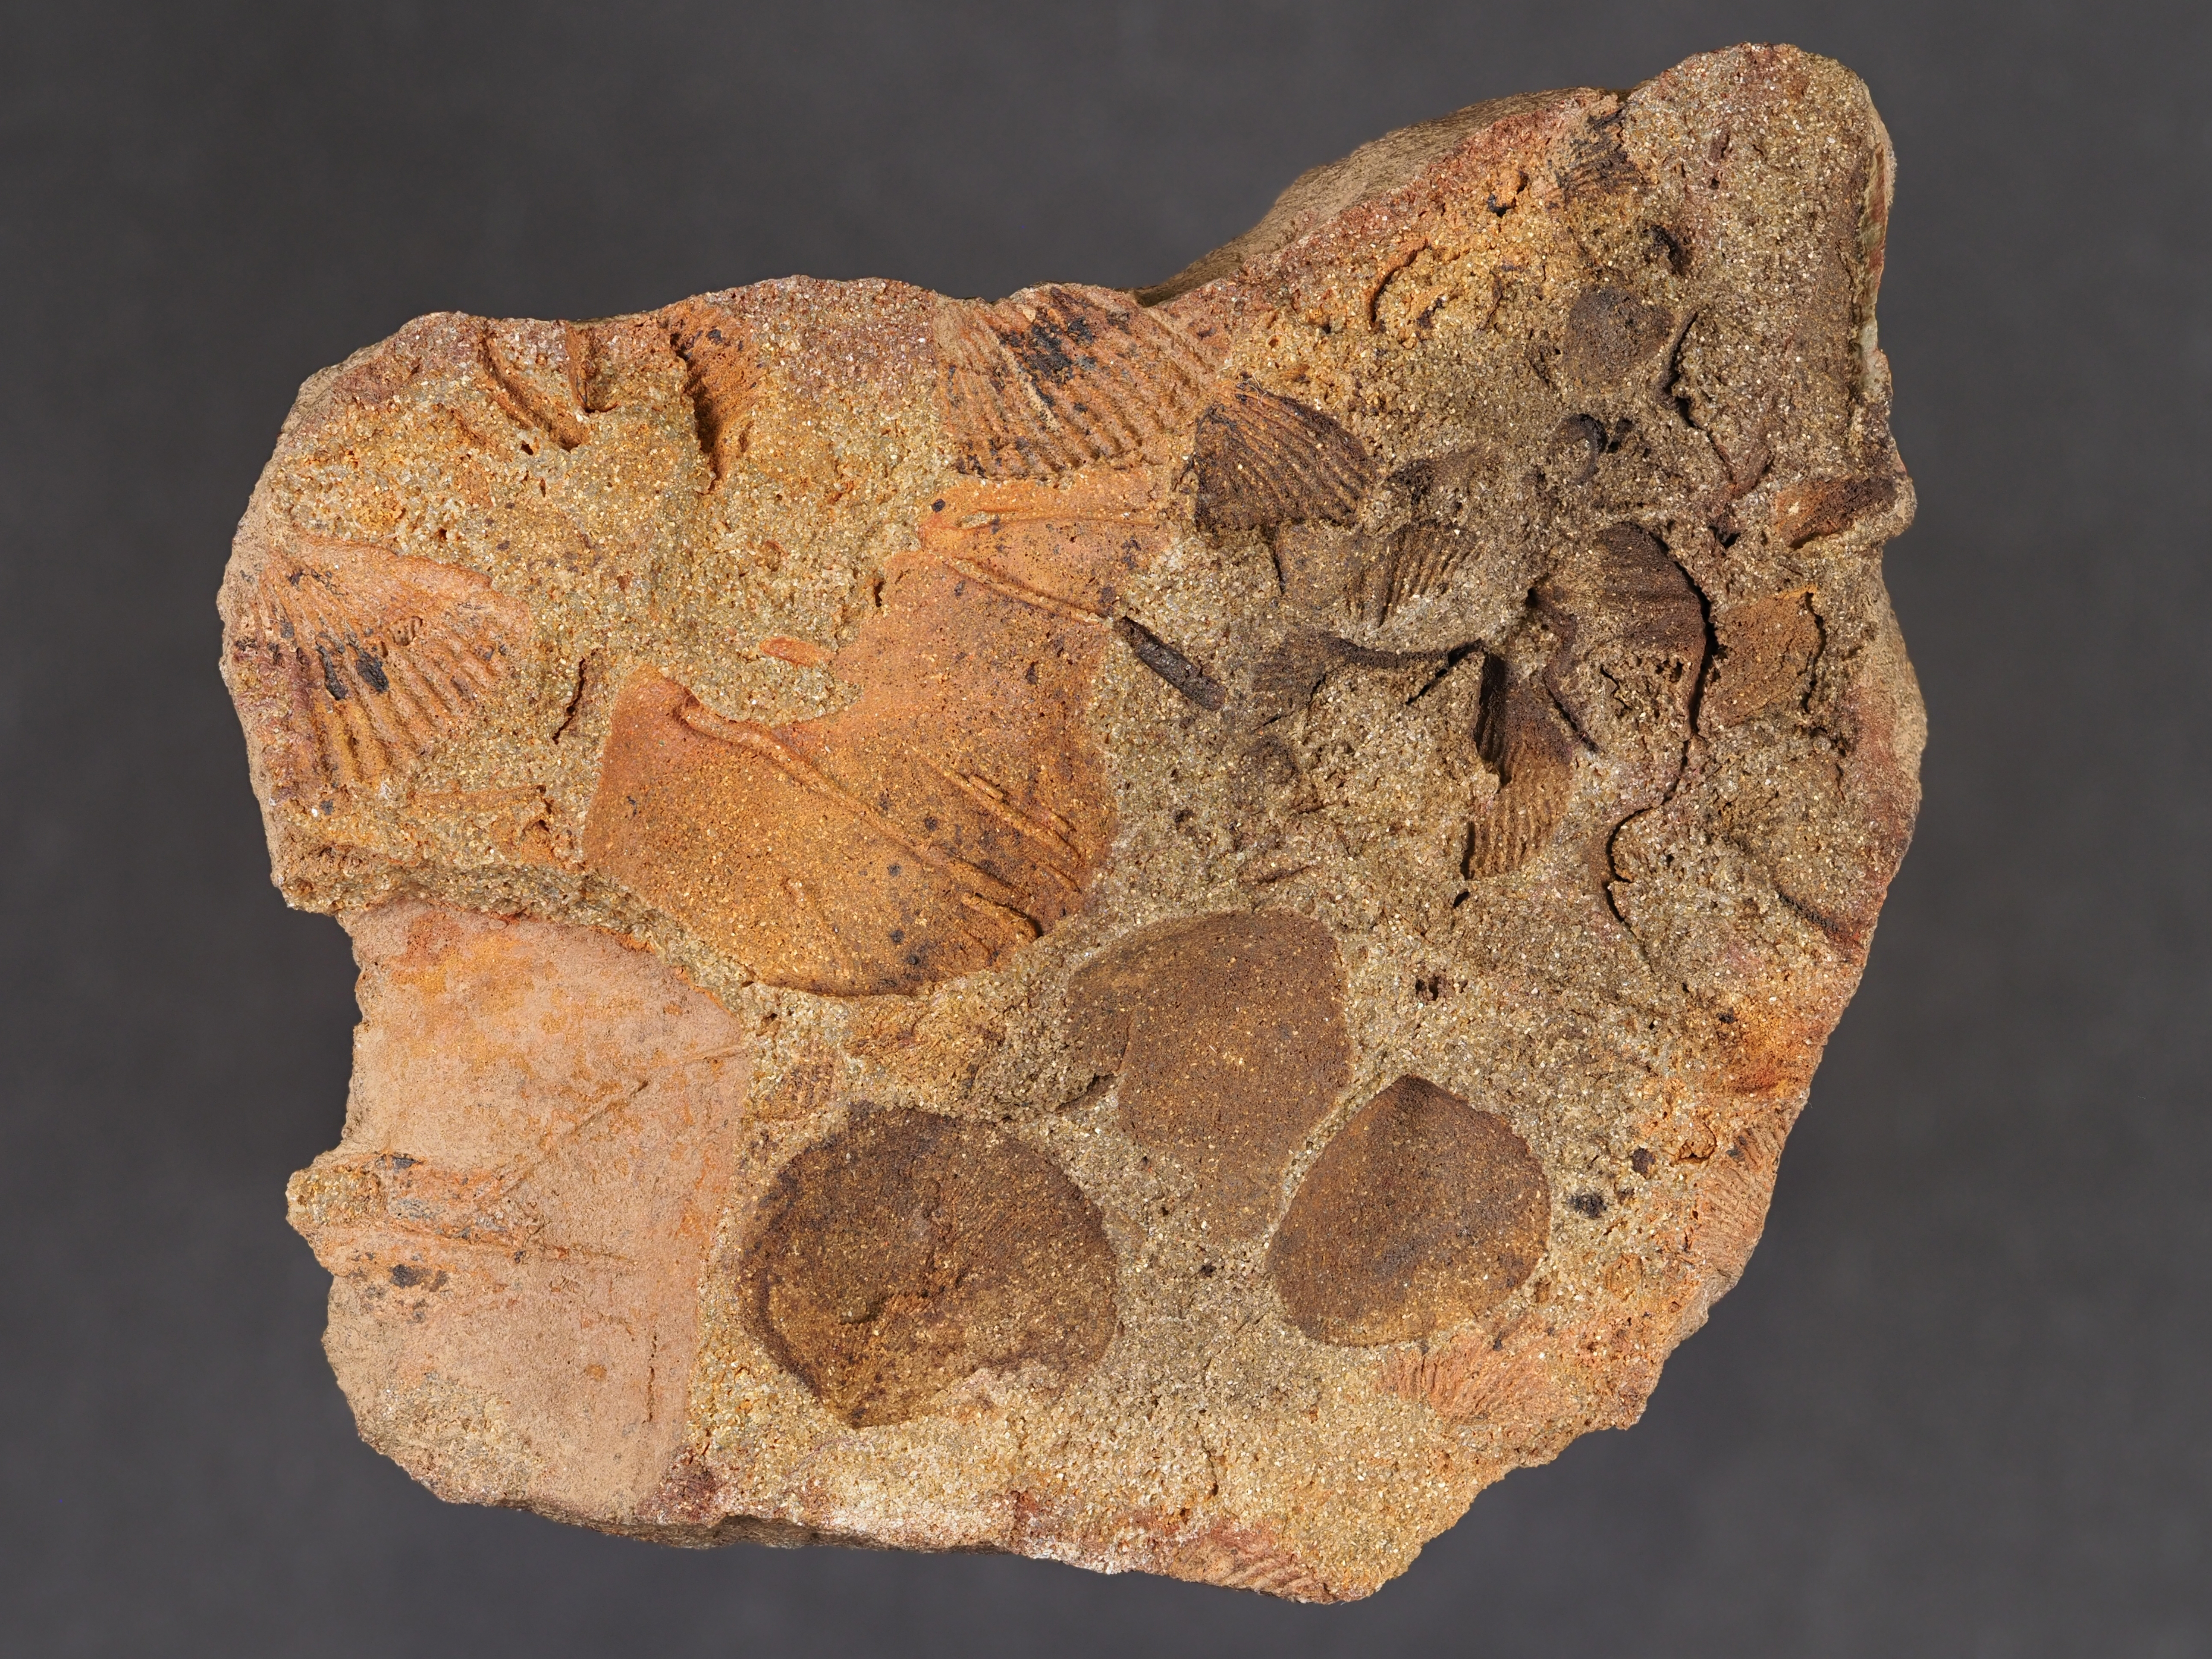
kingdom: Animalia
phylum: Brachiopoda
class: Rhynchonellata
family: Athyrididae
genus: Athyris
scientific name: Athyris
